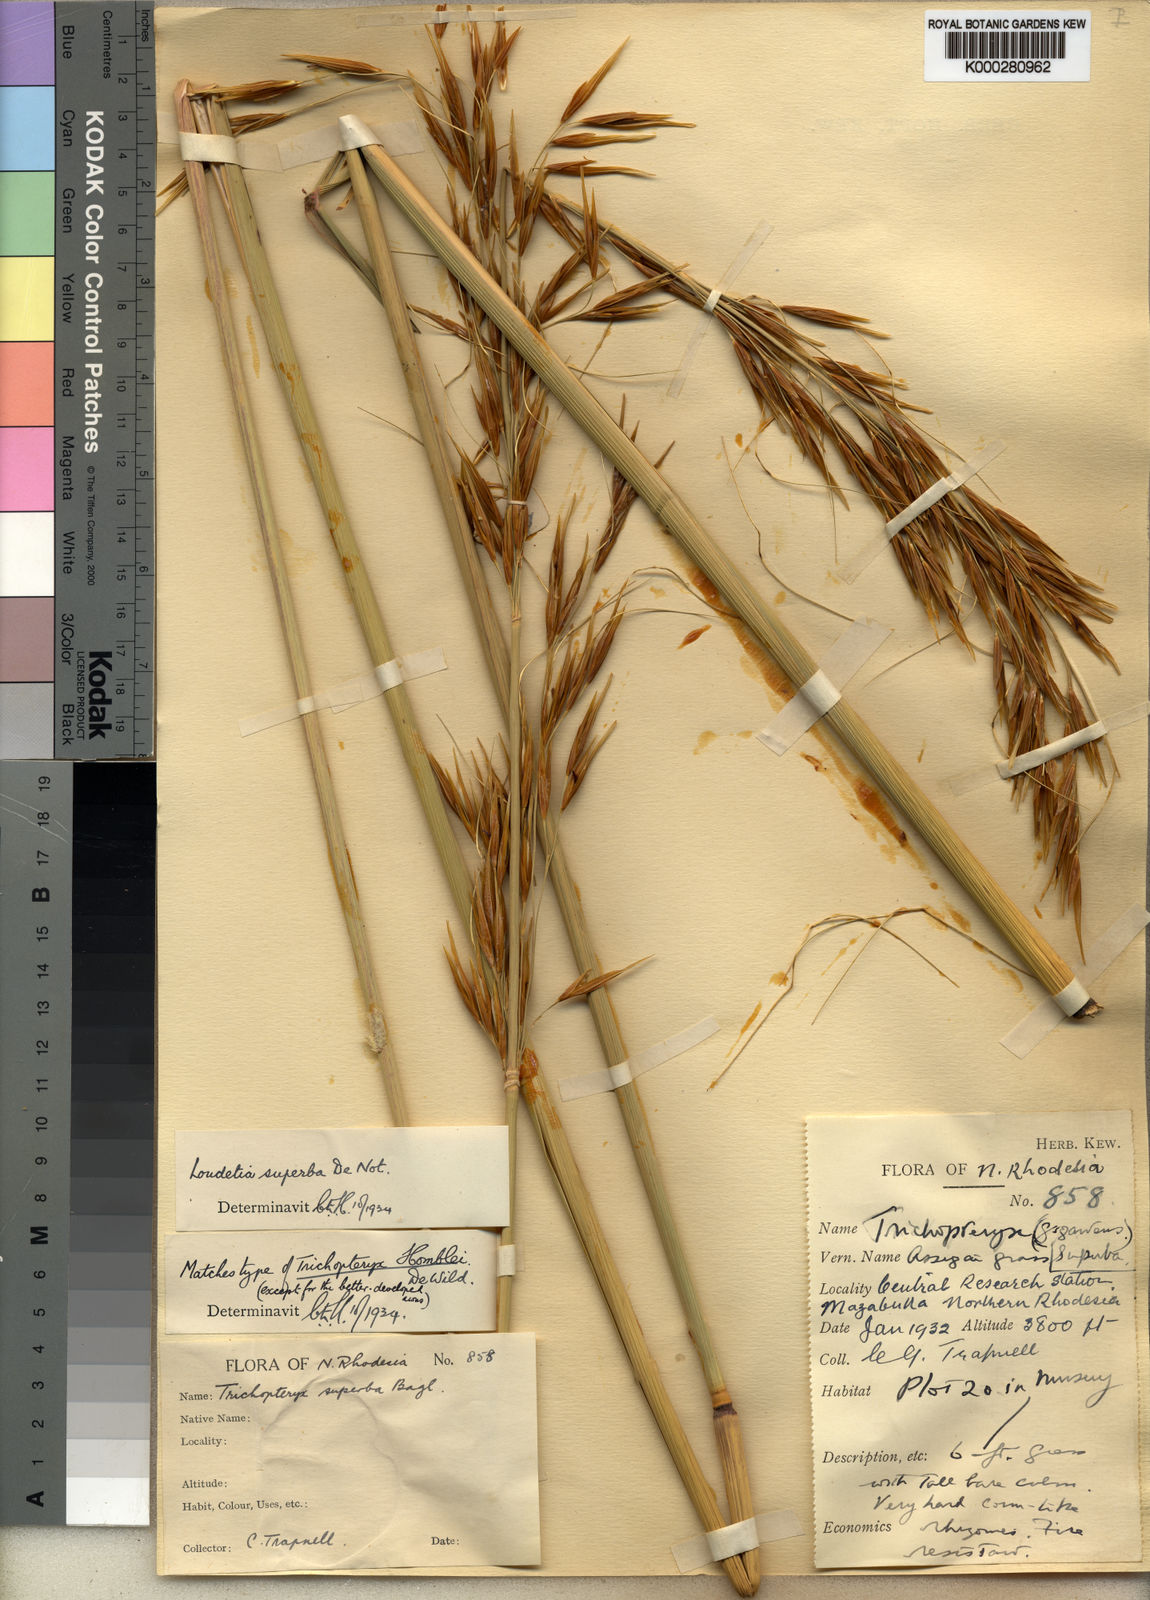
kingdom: Plantae
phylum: Tracheophyta
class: Liliopsida
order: Poales
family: Poaceae
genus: Tristachya
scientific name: Tristachya
